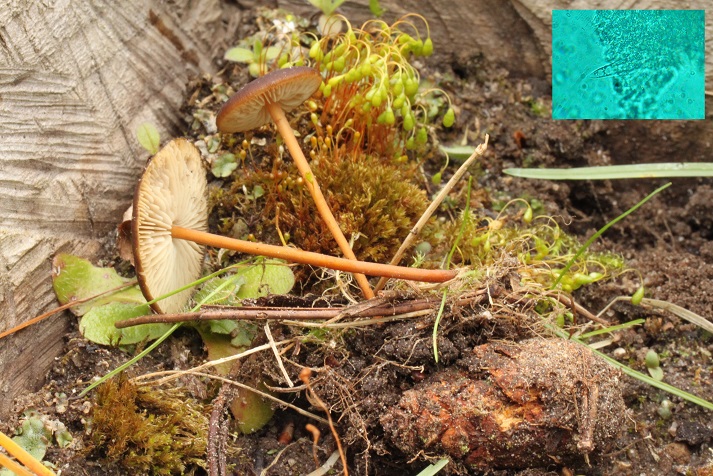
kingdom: Fungi
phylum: Basidiomycota
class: Agaricomycetes
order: Agaricales
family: Physalacriaceae
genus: Strobilurus
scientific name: Strobilurus tenacellus
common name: sommer-koglehat
